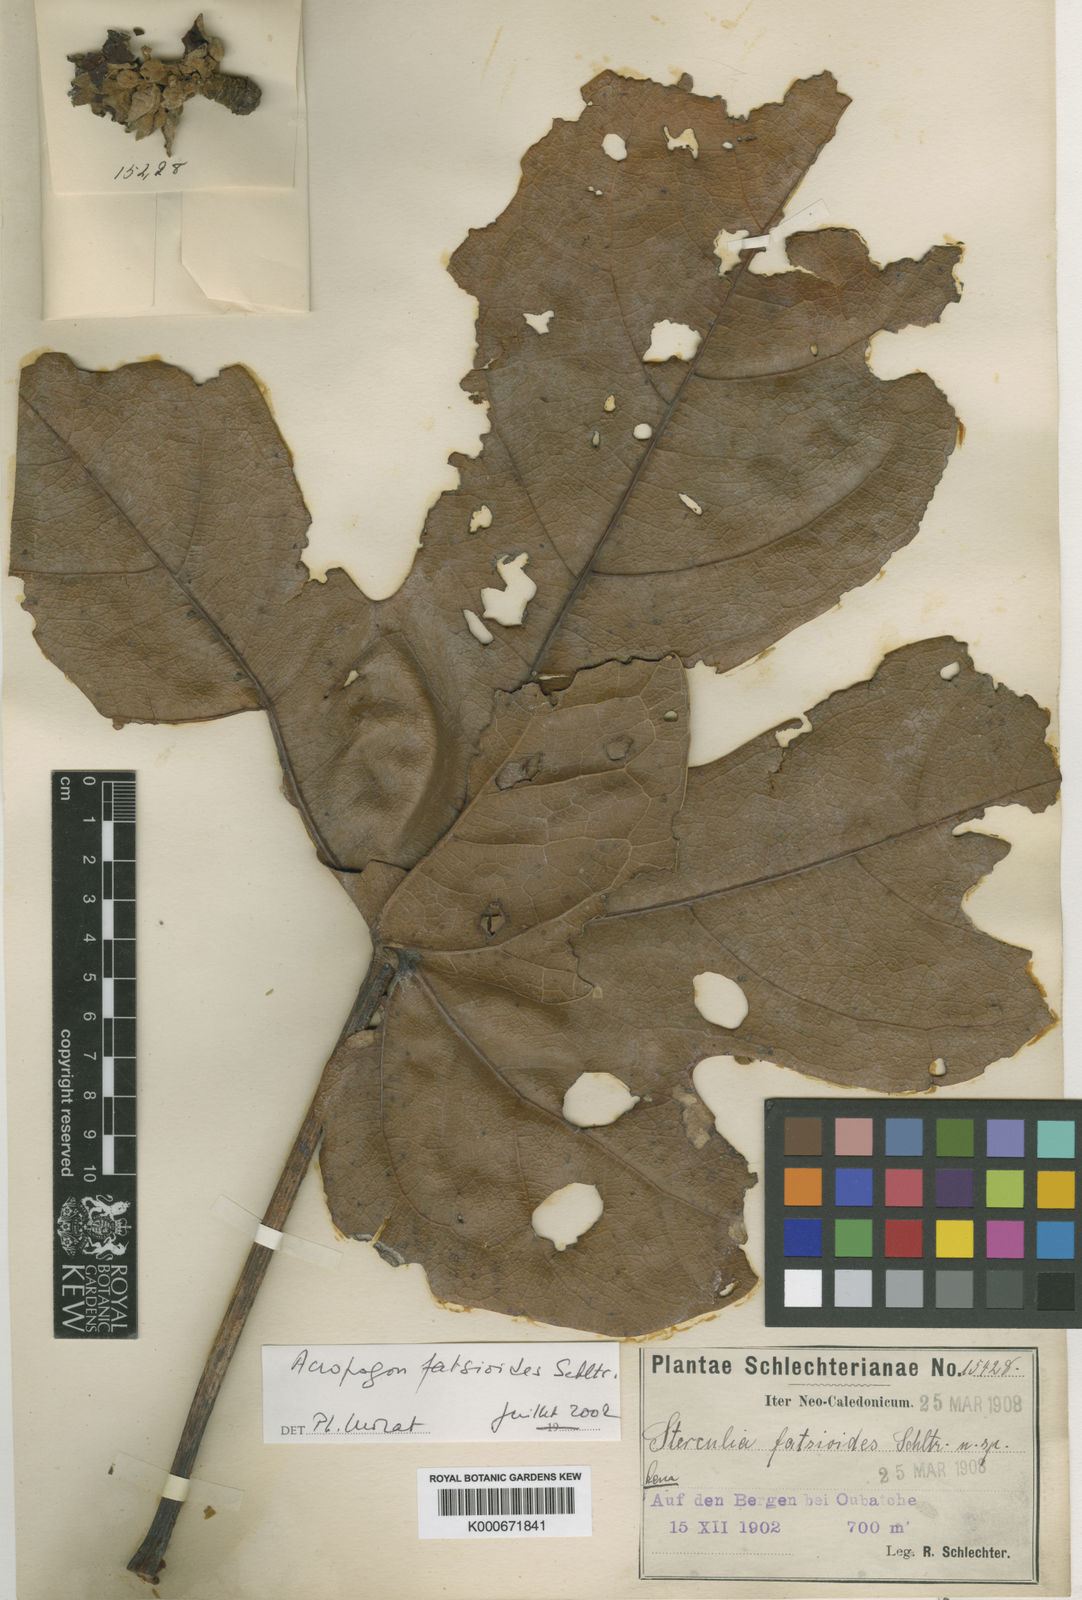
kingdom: Plantae
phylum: Tracheophyta
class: Magnoliopsida
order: Malvales
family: Malvaceae
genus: Sterculia
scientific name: Sterculia
